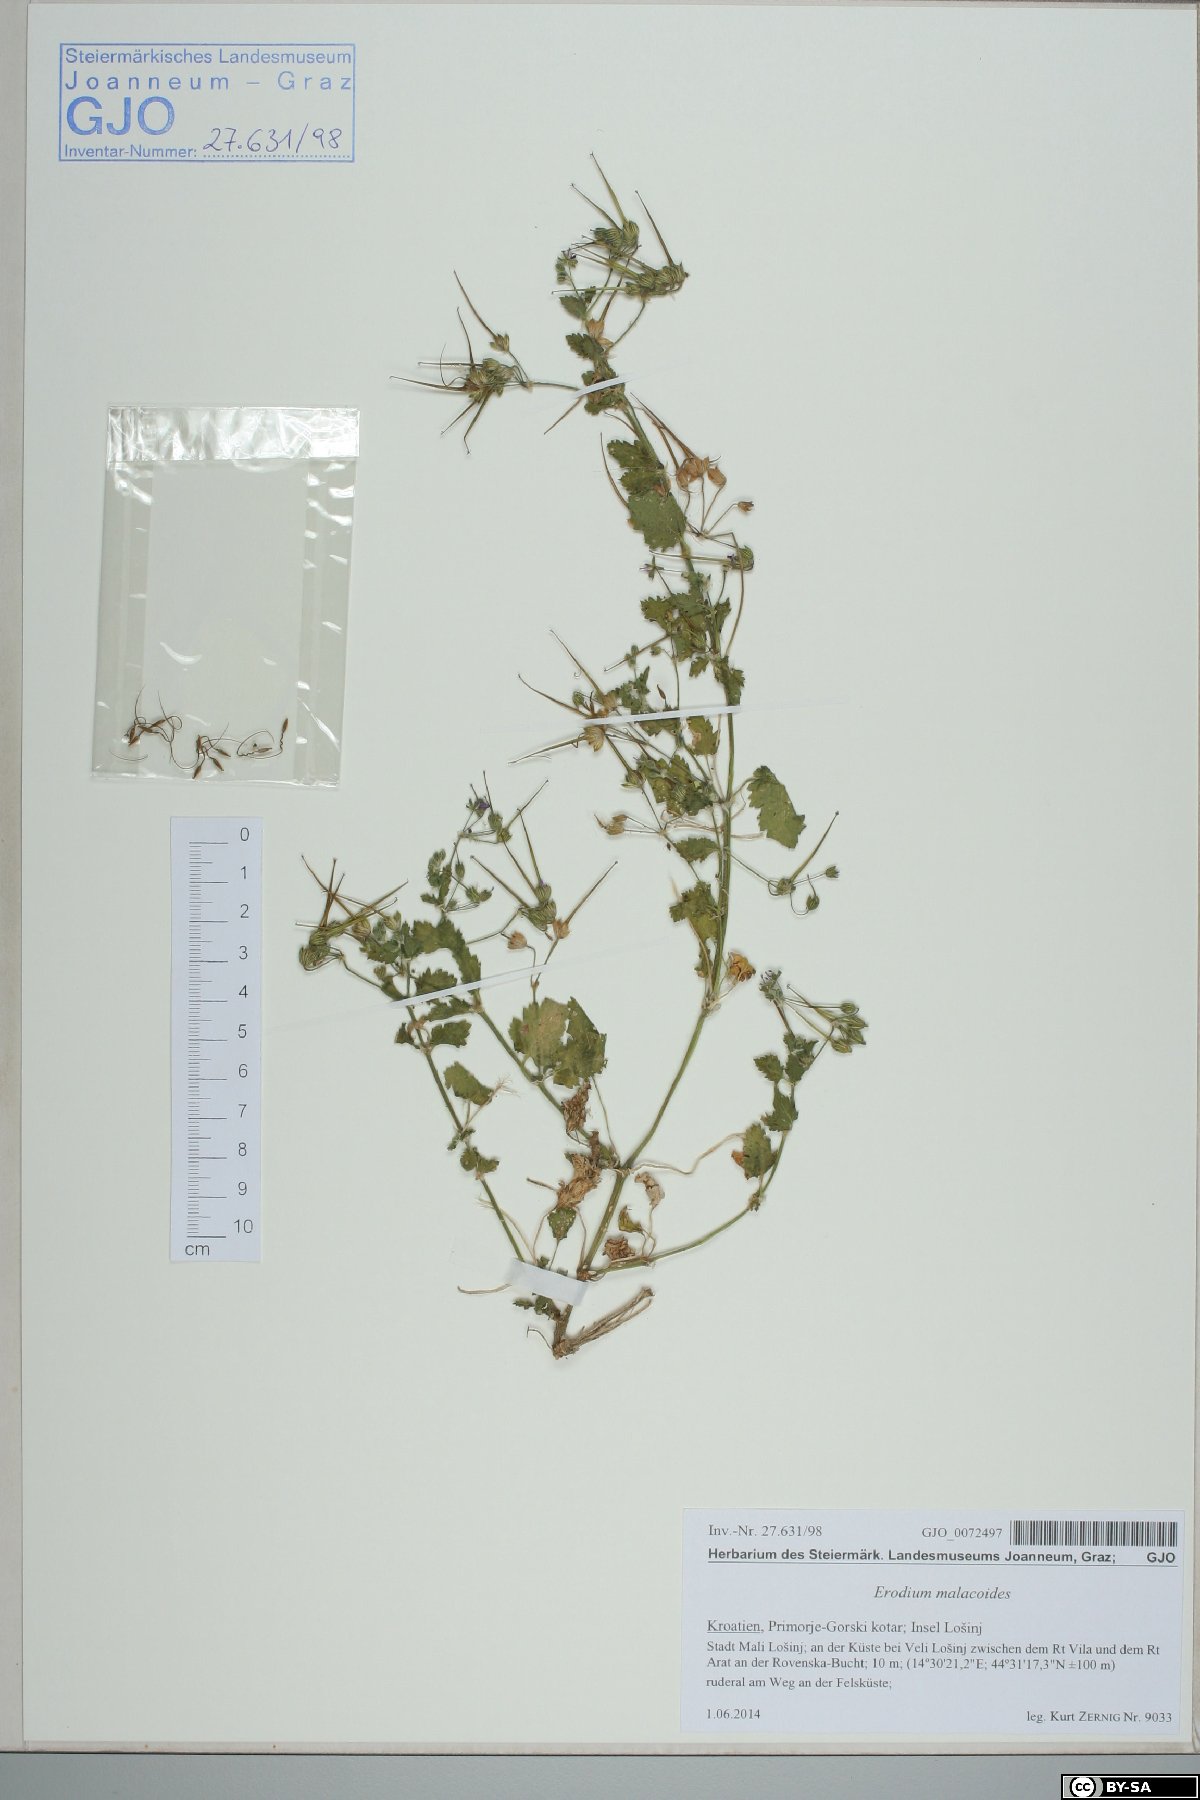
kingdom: Plantae
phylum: Tracheophyta
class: Magnoliopsida
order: Geraniales
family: Geraniaceae
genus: Erodium
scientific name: Erodium malacoides
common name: Soft stork's-bill
